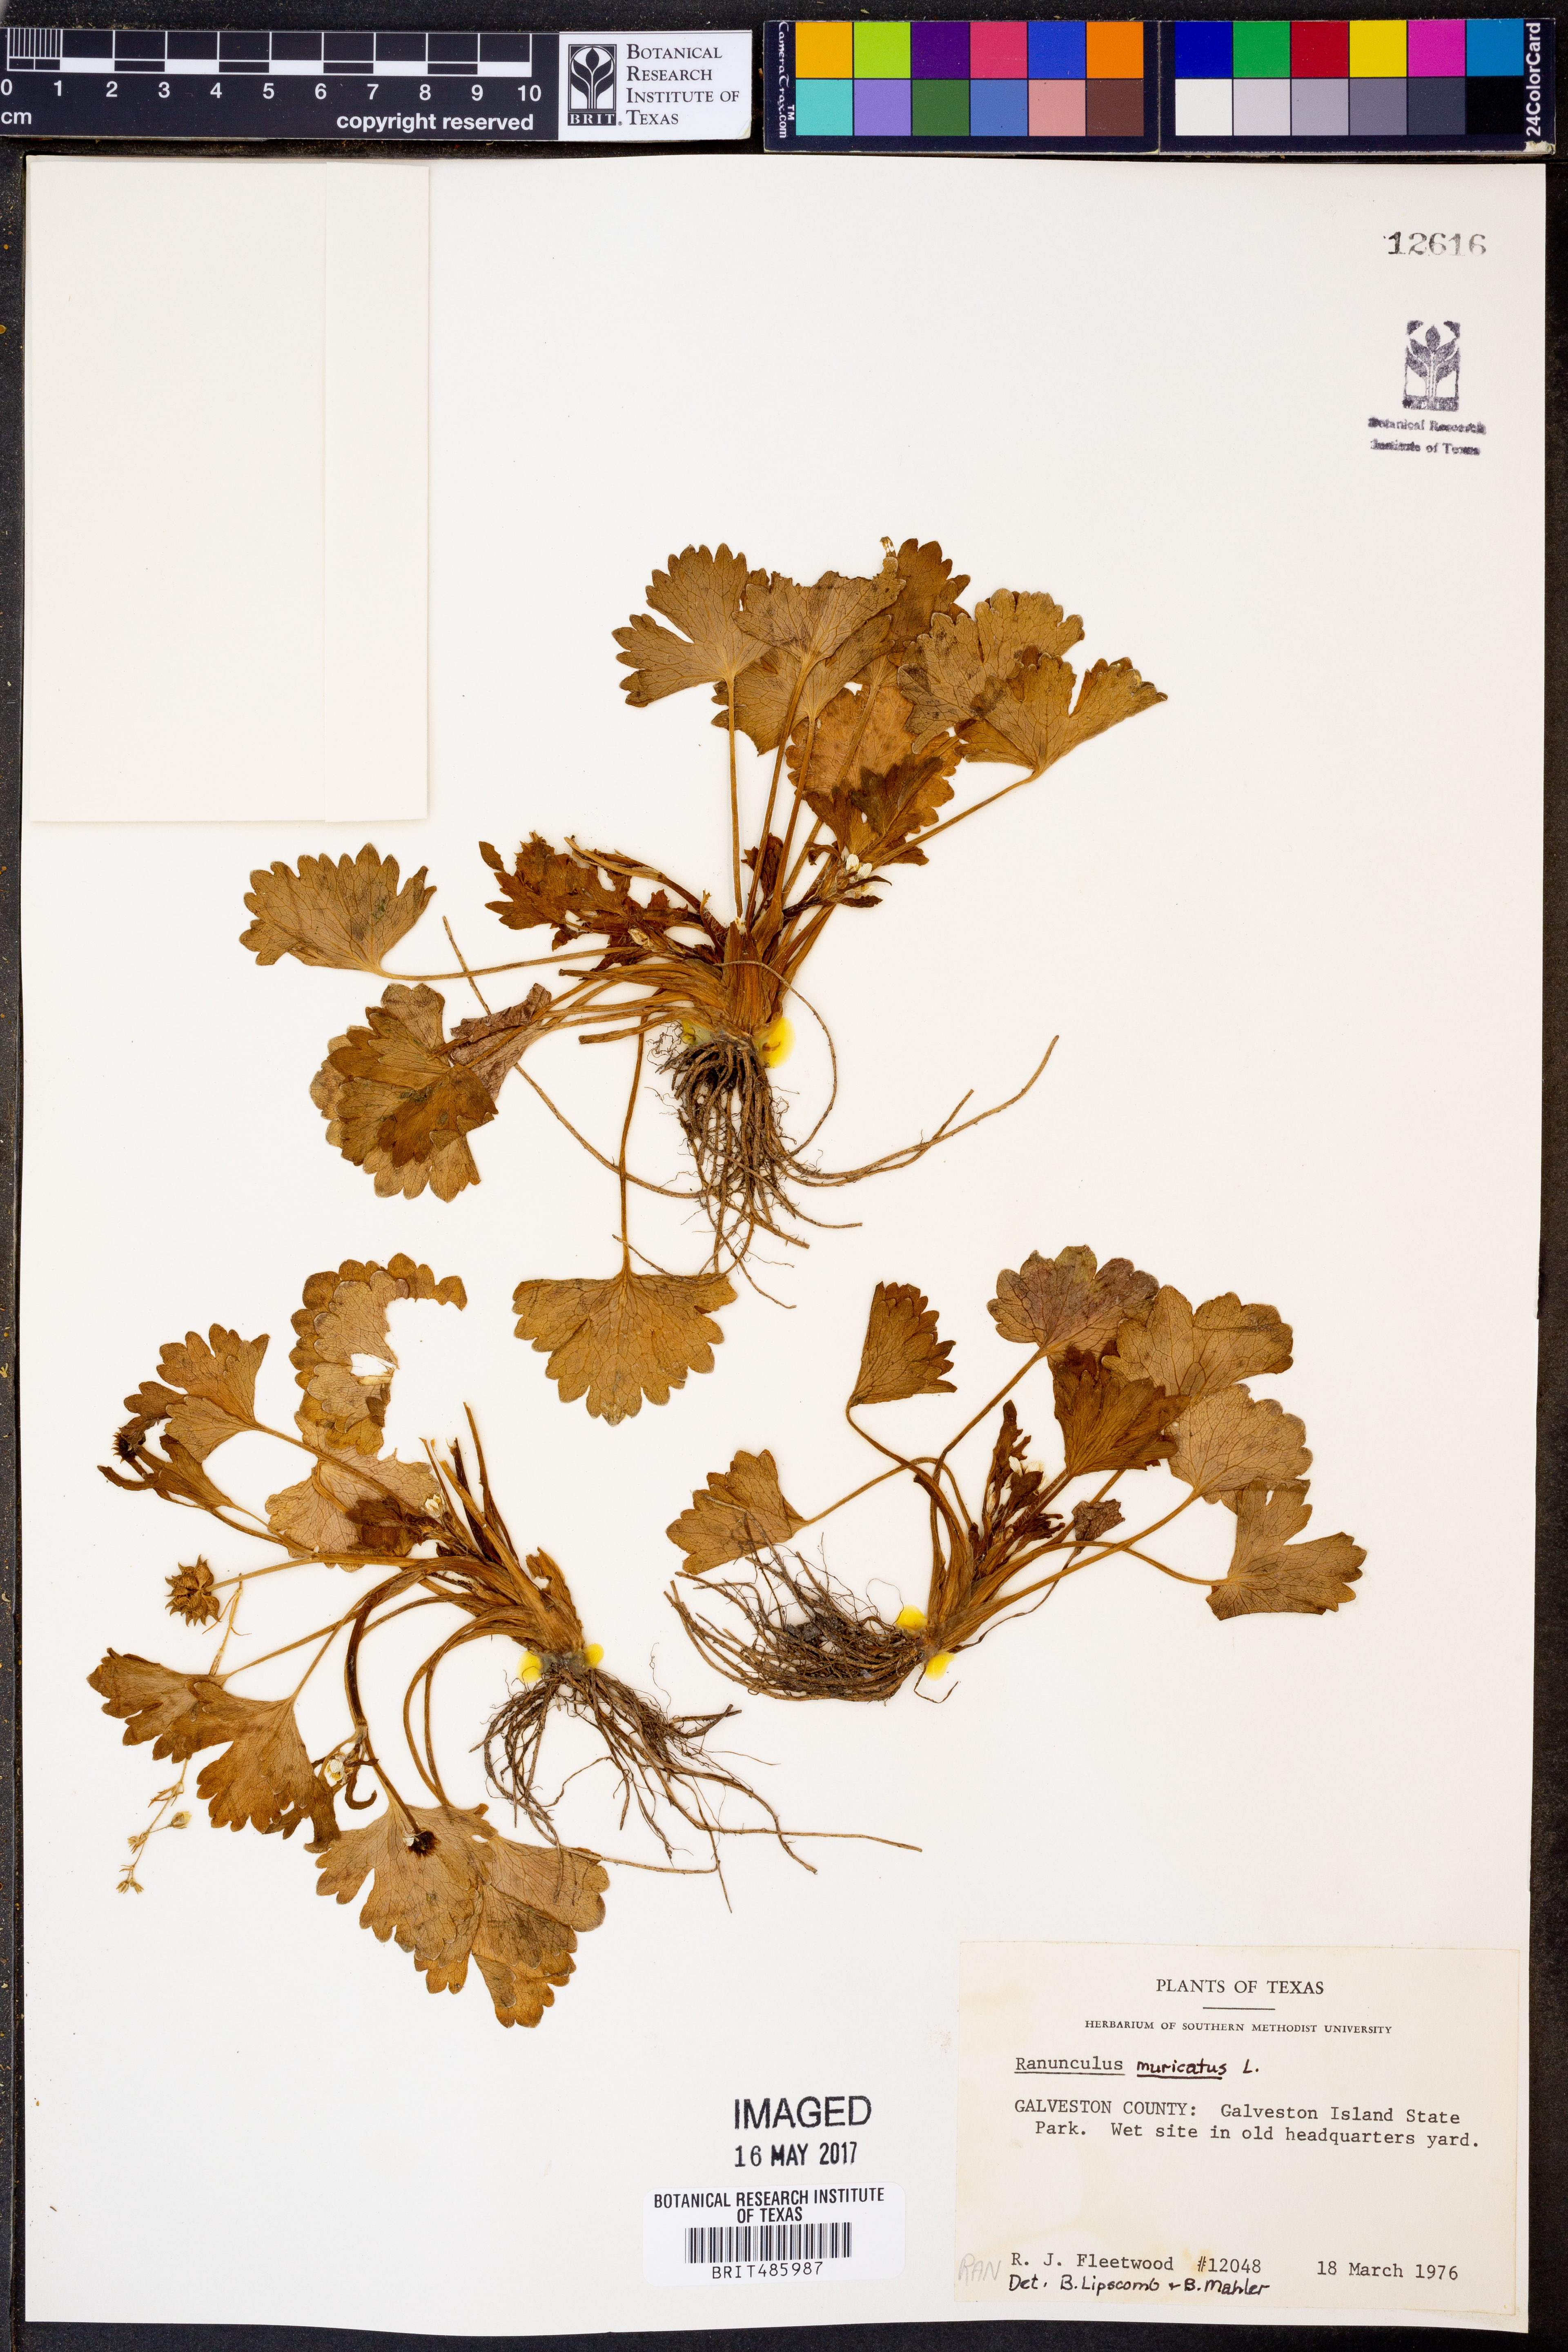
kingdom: Plantae
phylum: Tracheophyta
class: Magnoliopsida
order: Ranunculales
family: Ranunculaceae
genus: Ranunculus
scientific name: Ranunculus muricatus
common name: Rough-fruited buttercup
